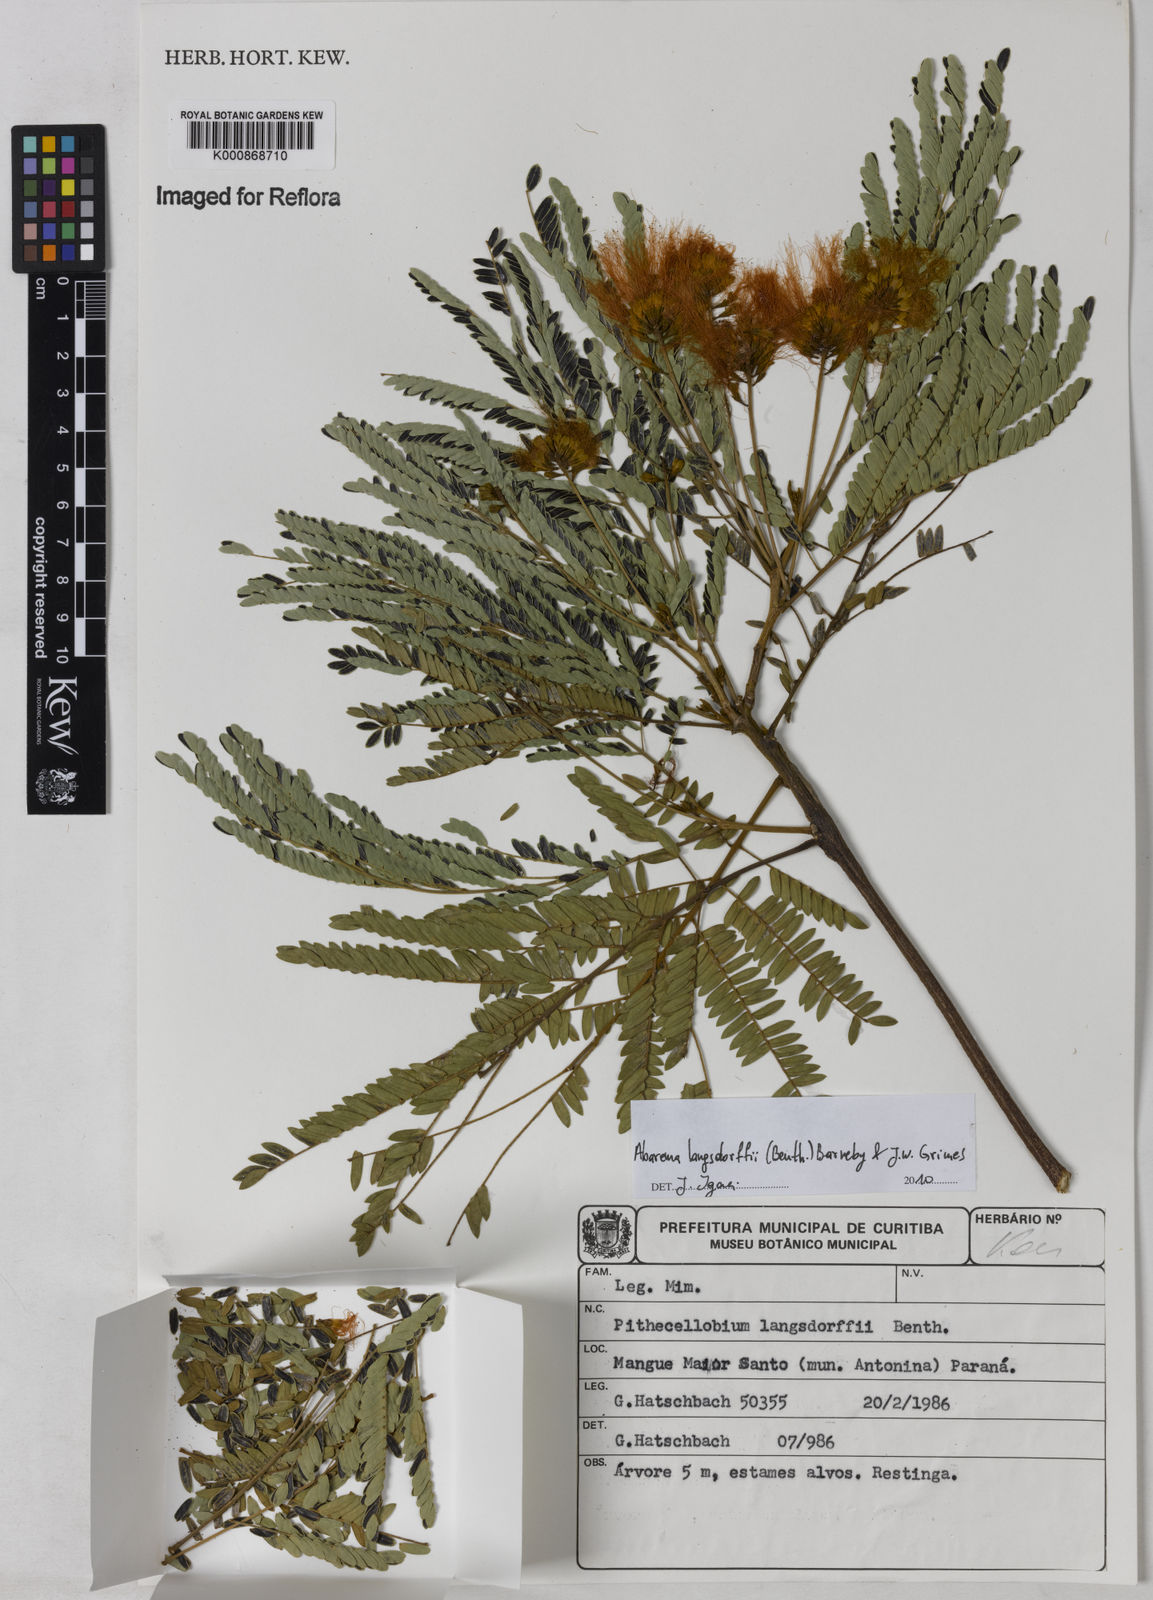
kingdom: Plantae
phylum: Tracheophyta
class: Magnoliopsida
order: Fabales
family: Fabaceae
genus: Jupunba
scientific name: Jupunba langsdorffii
